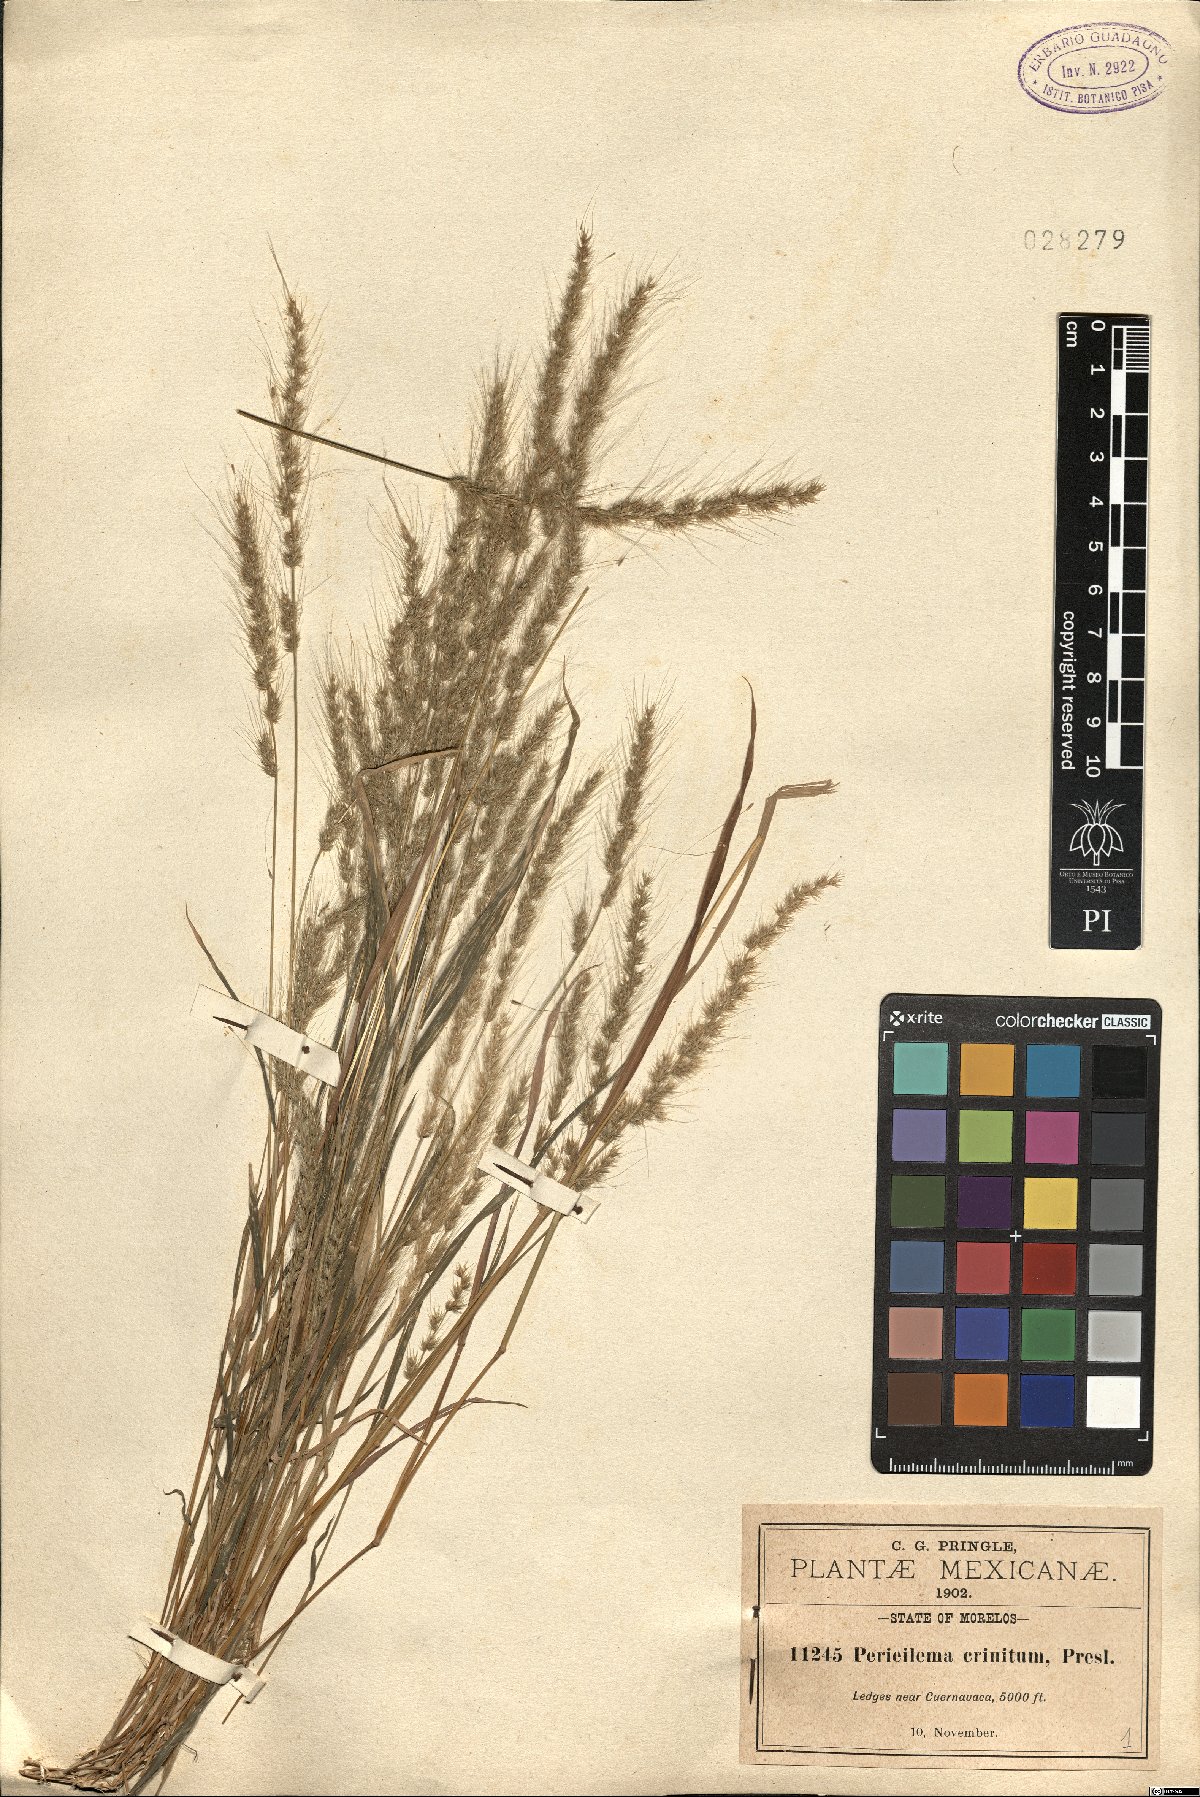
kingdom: Plantae
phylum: Tracheophyta
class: Liliopsida
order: Poales
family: Poaceae
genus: Muhlenbergia
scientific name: Muhlenbergia pereilema
